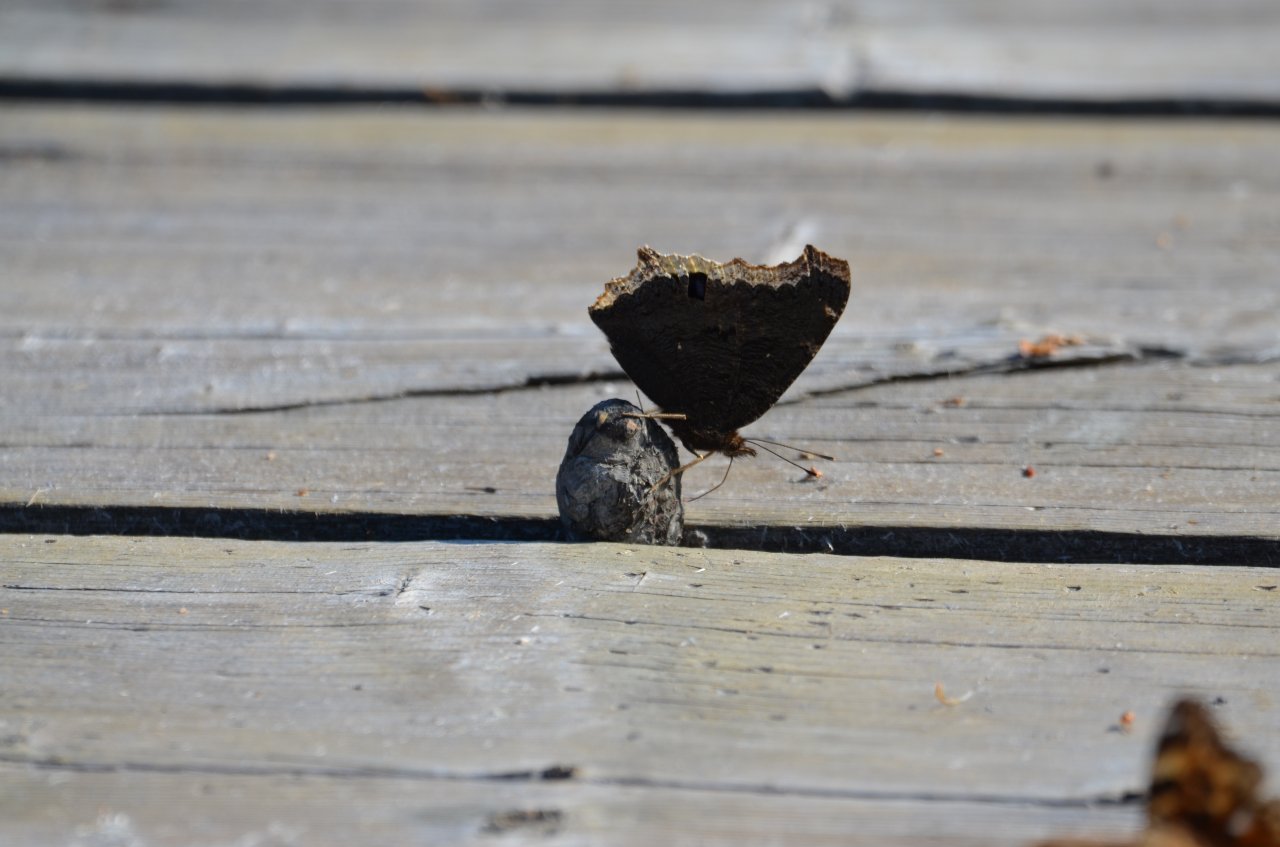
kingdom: Animalia
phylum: Arthropoda
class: Insecta
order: Lepidoptera
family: Nymphalidae
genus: Nymphalis
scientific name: Nymphalis antiopa
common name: Mourning Cloak
